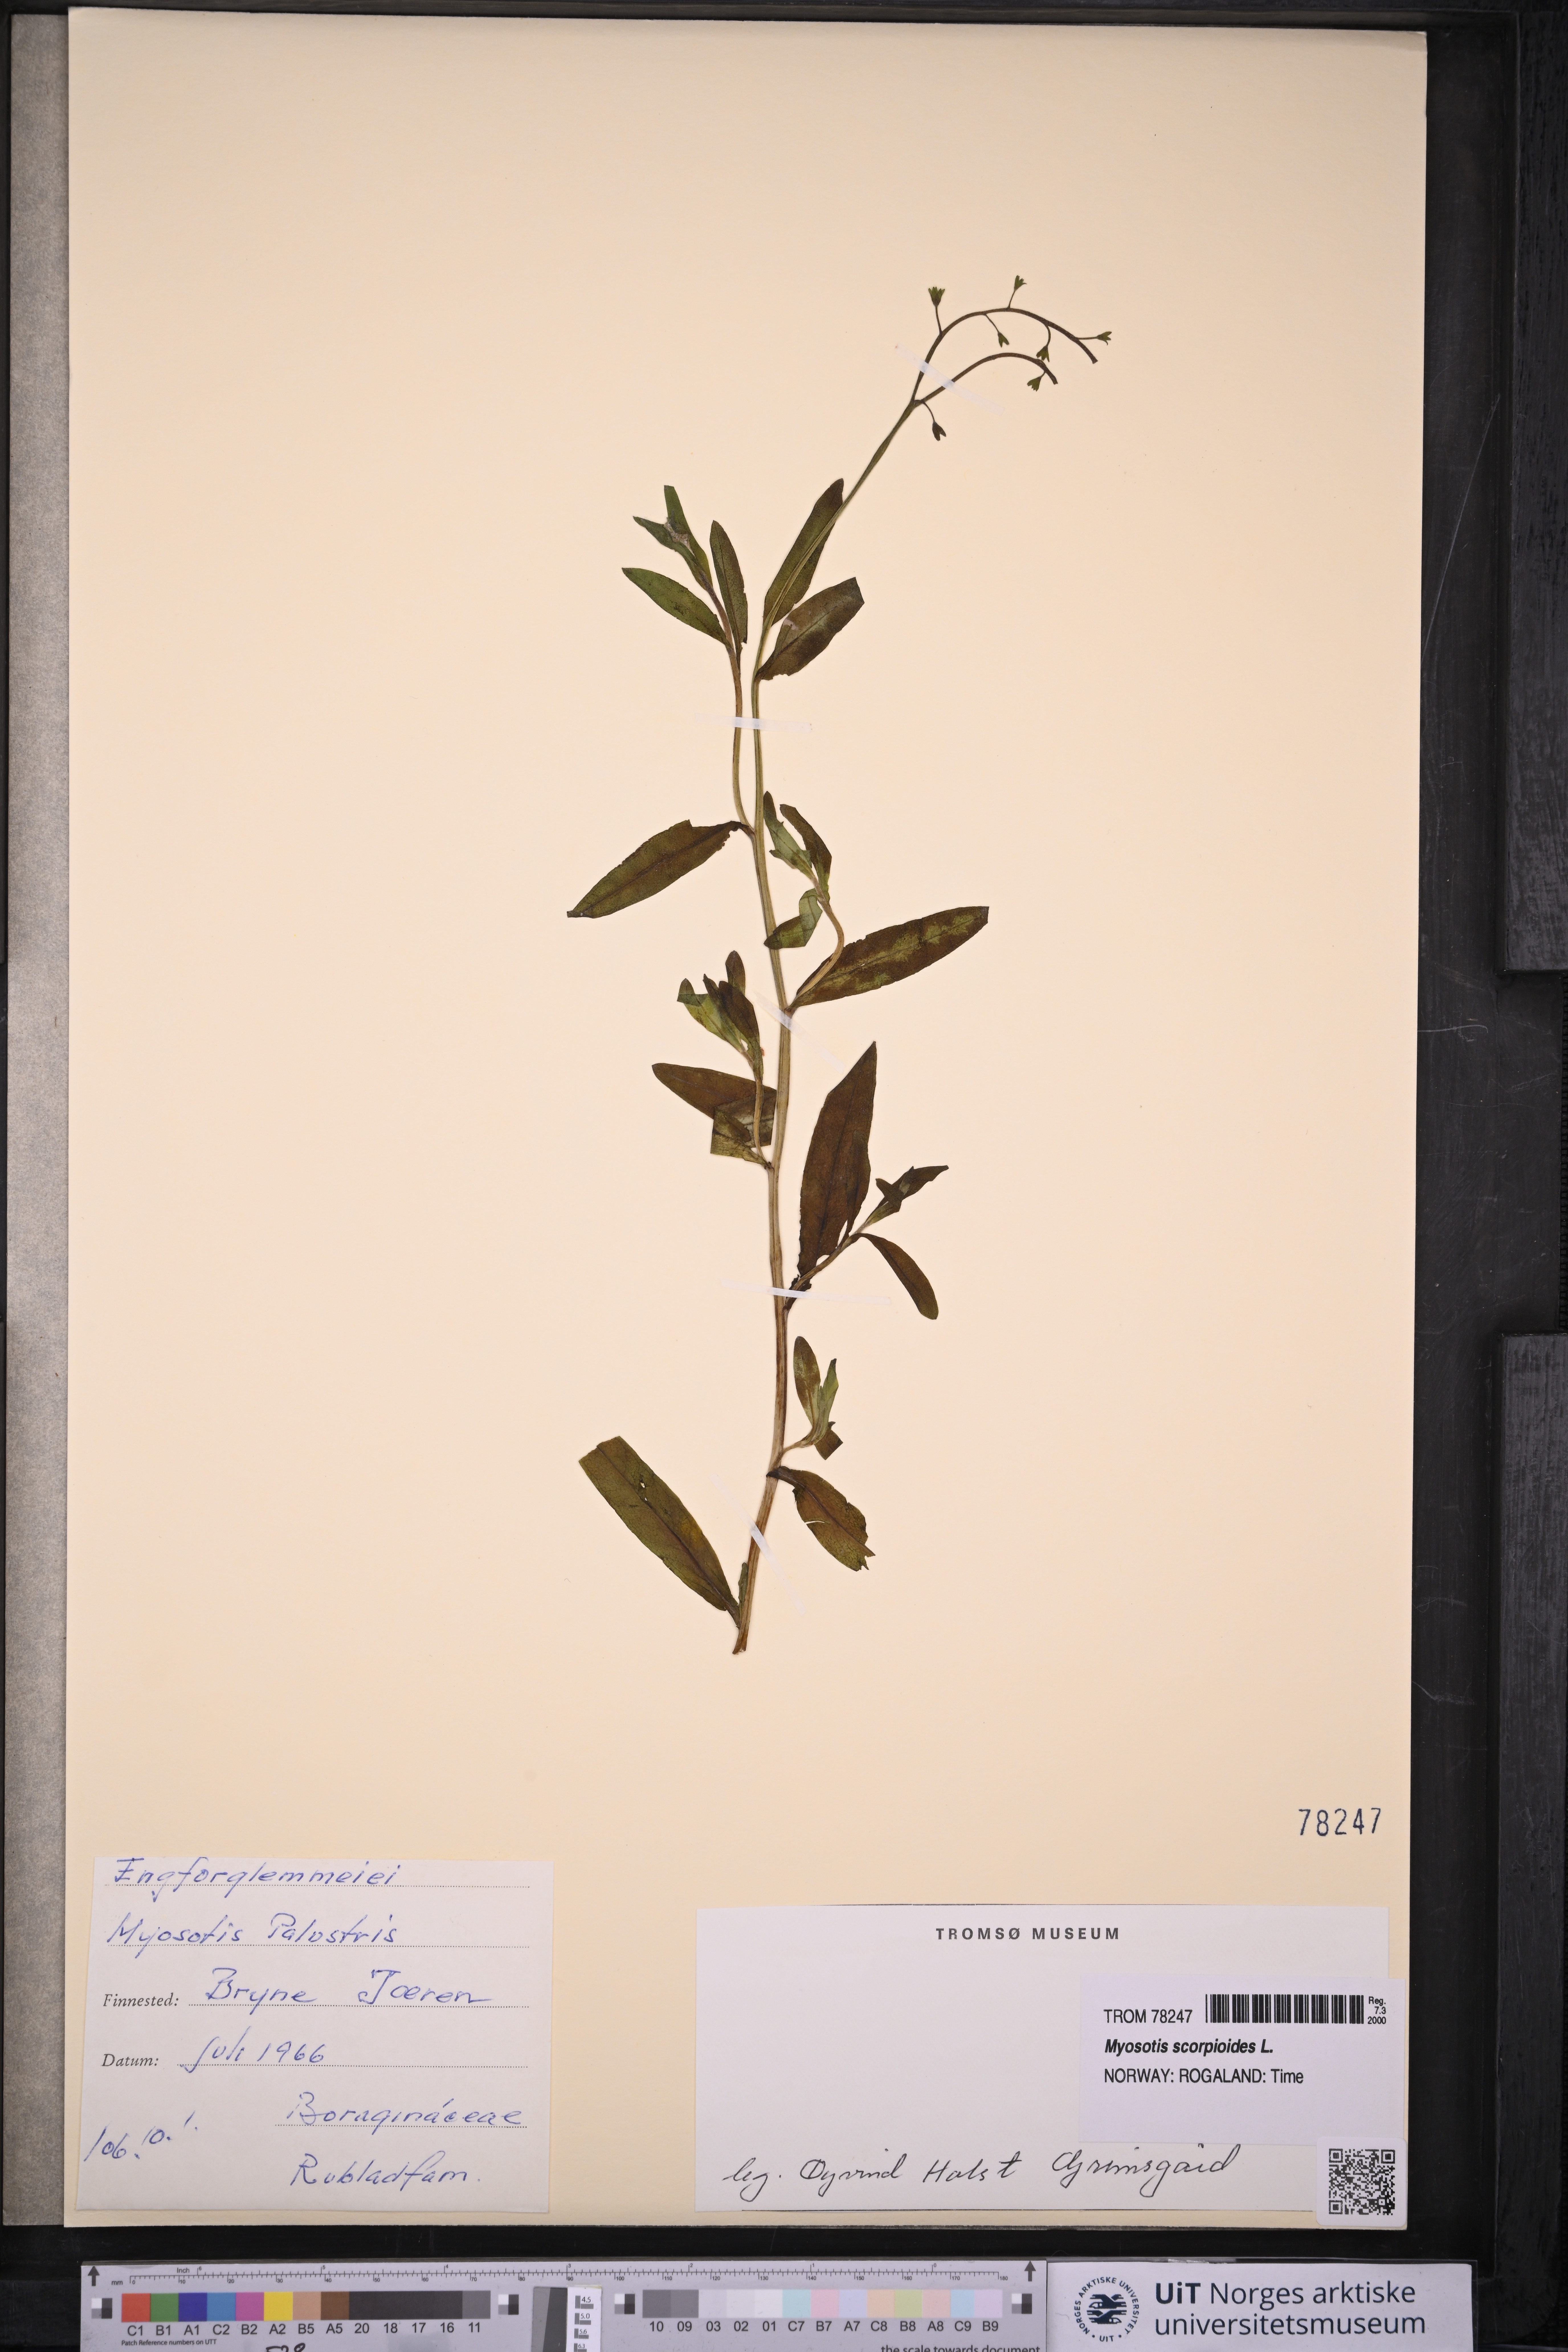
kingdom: Plantae
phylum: Tracheophyta
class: Magnoliopsida
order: Boraginales
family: Boraginaceae
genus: Myosotis
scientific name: Myosotis scorpioides
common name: Water forget-me-not
